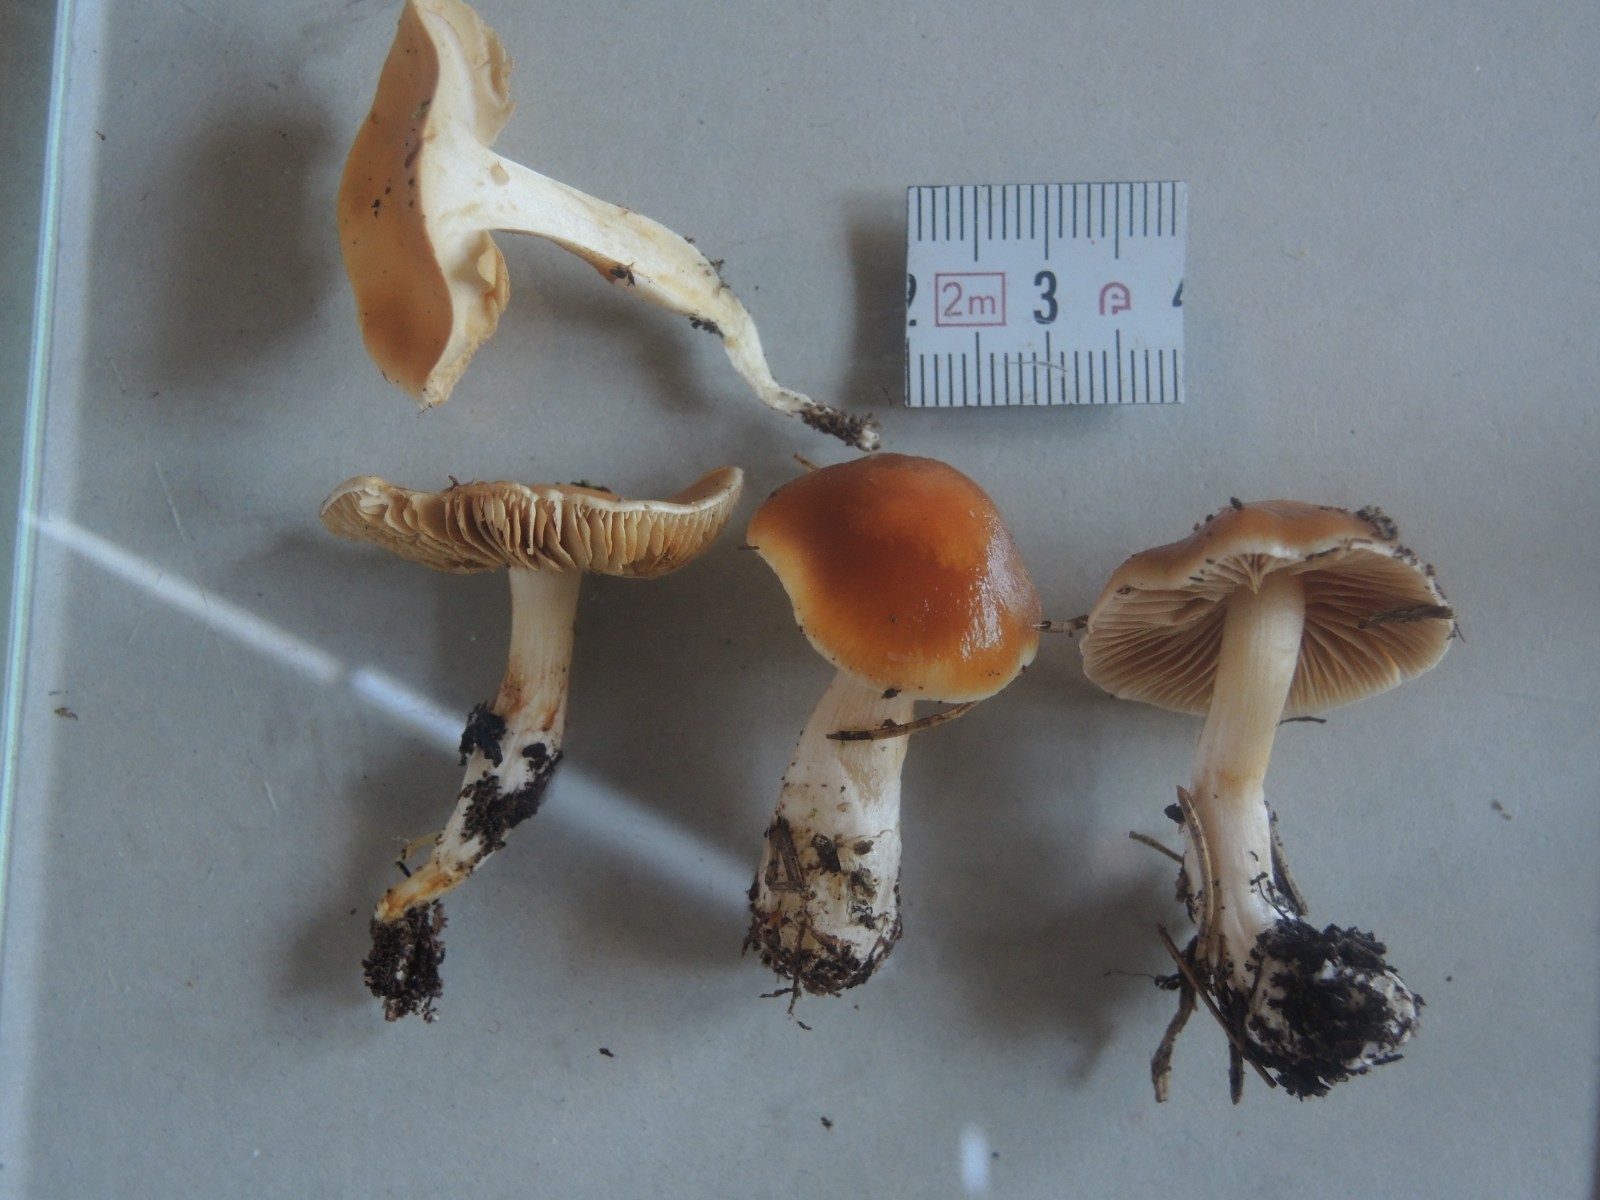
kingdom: Fungi
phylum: Basidiomycota
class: Agaricomycetes
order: Agaricales
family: Cortinariaceae
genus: Thaxterogaster
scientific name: Thaxterogaster vibratilis
